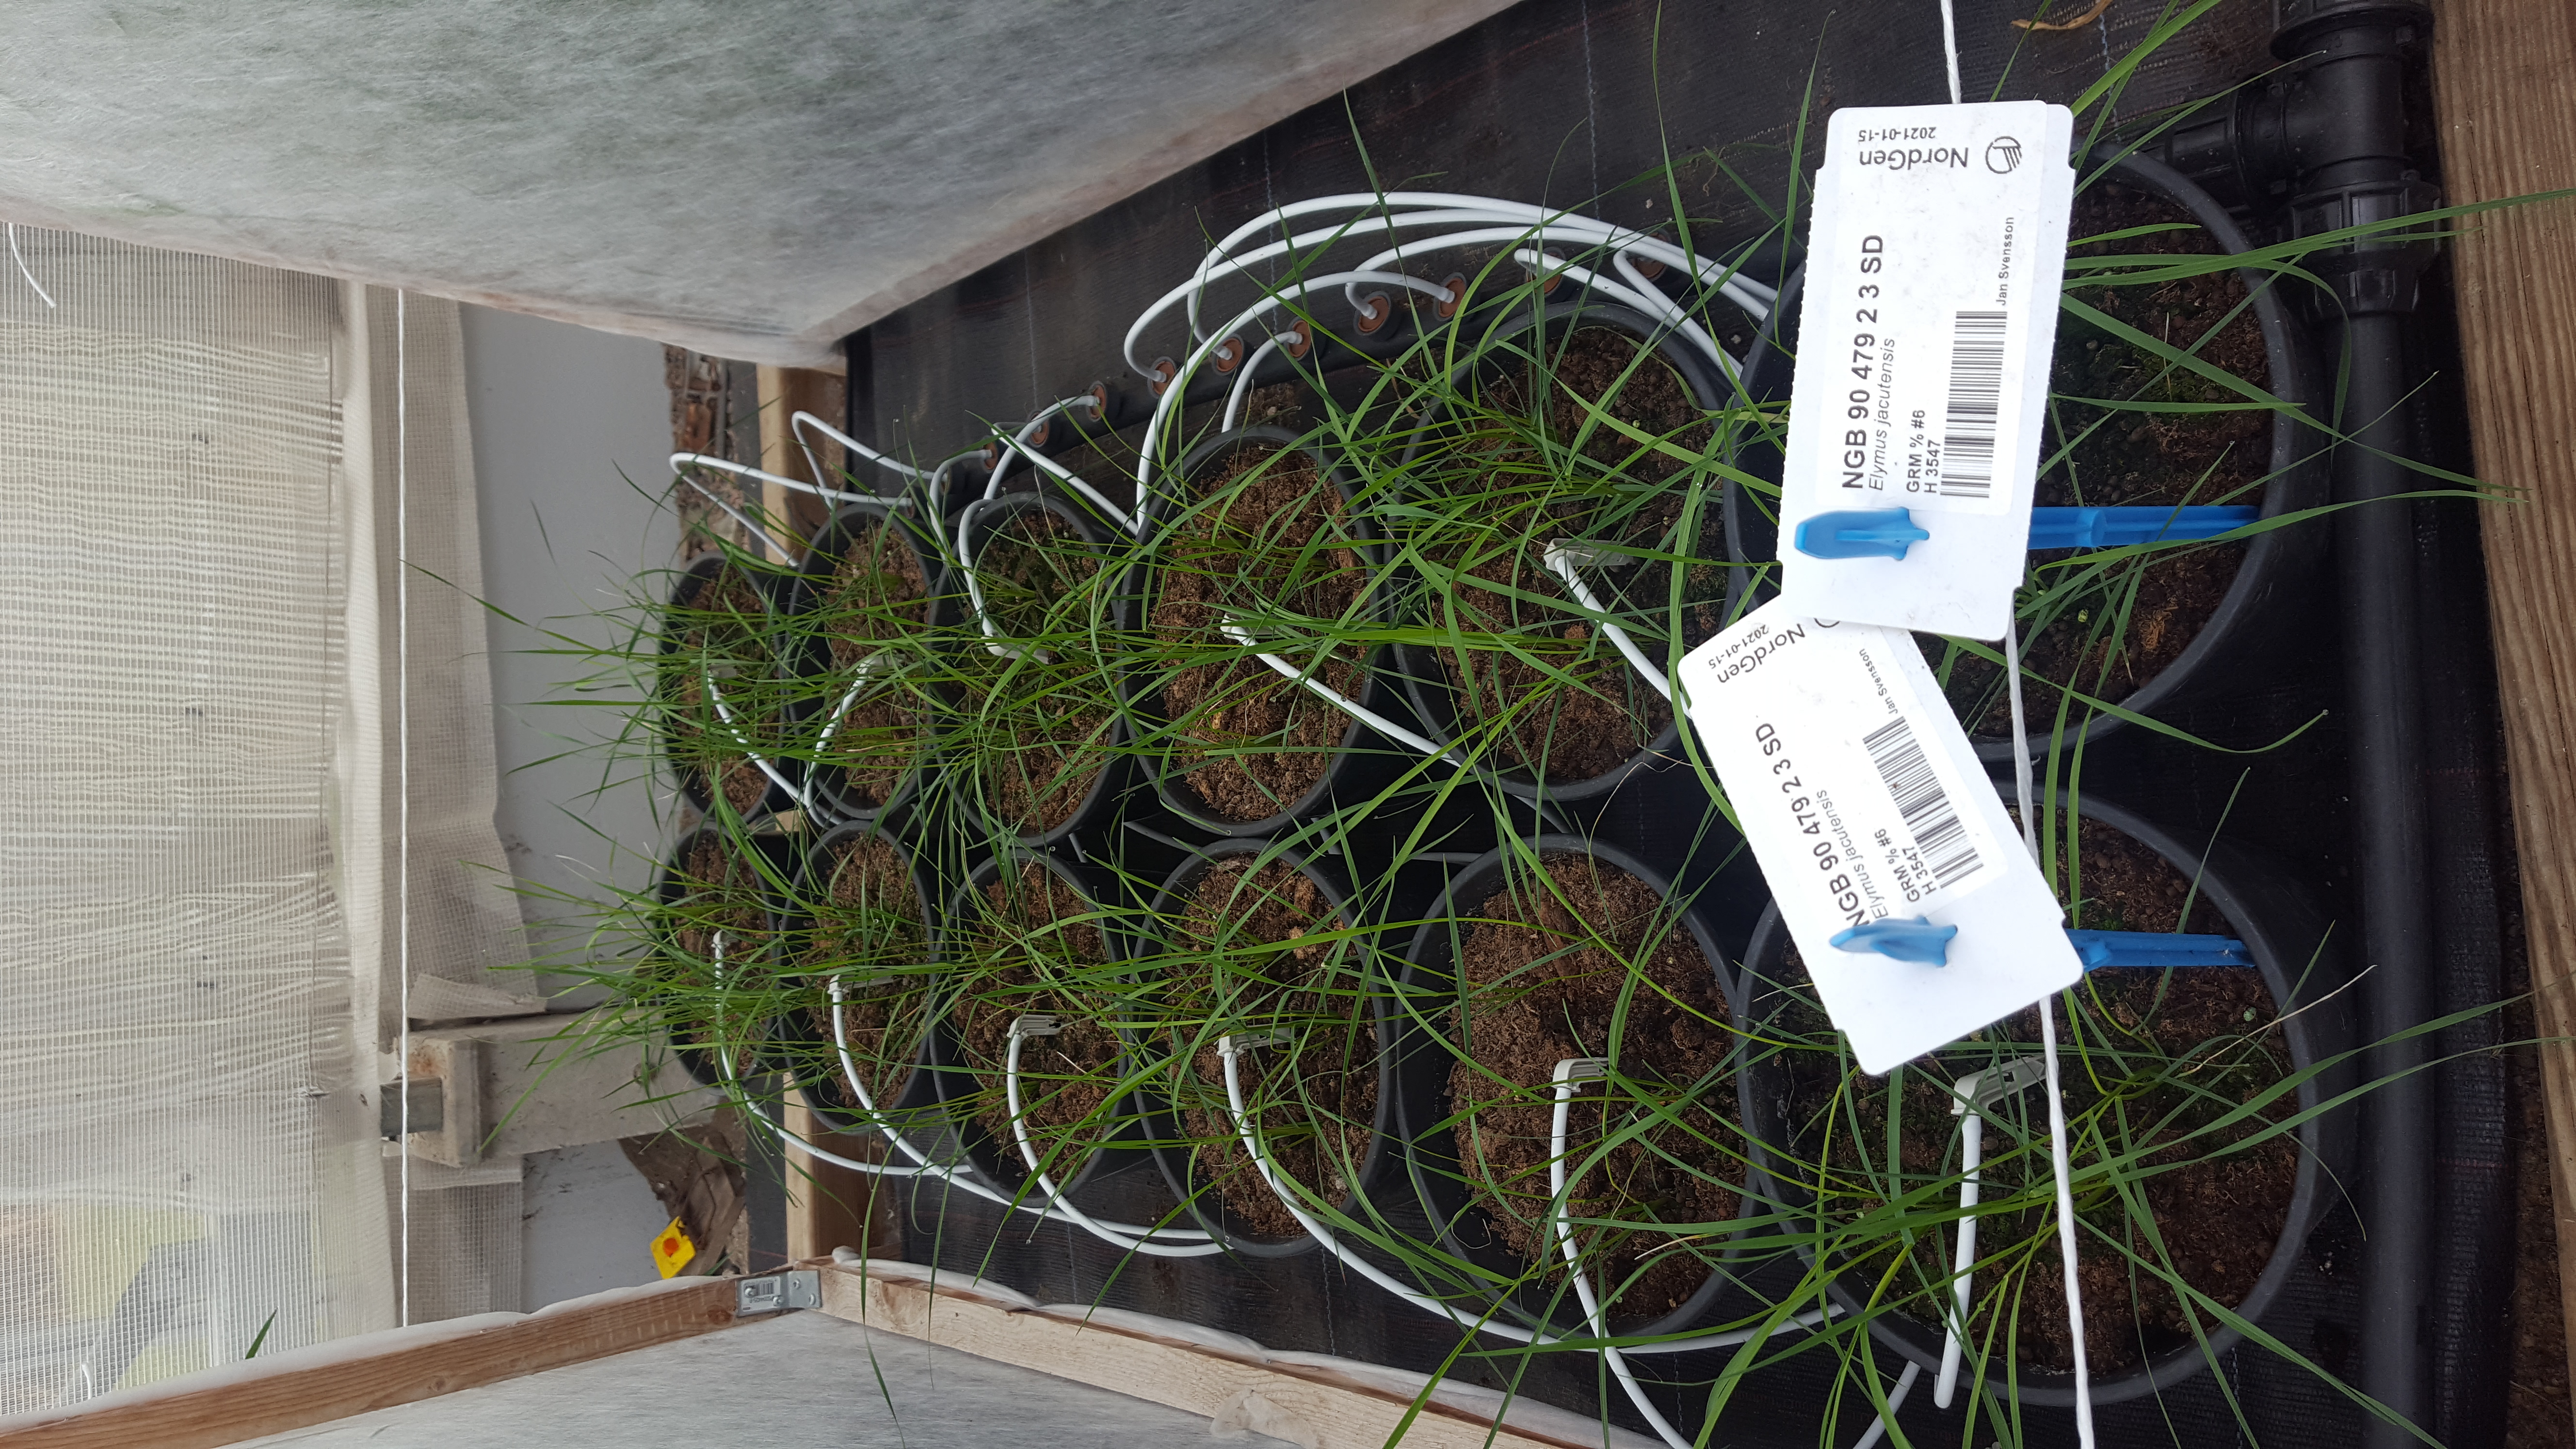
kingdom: Plantae
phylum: Tracheophyta
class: Liliopsida
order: Poales
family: Poaceae
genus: Elymus
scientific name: Elymus jacutensis
